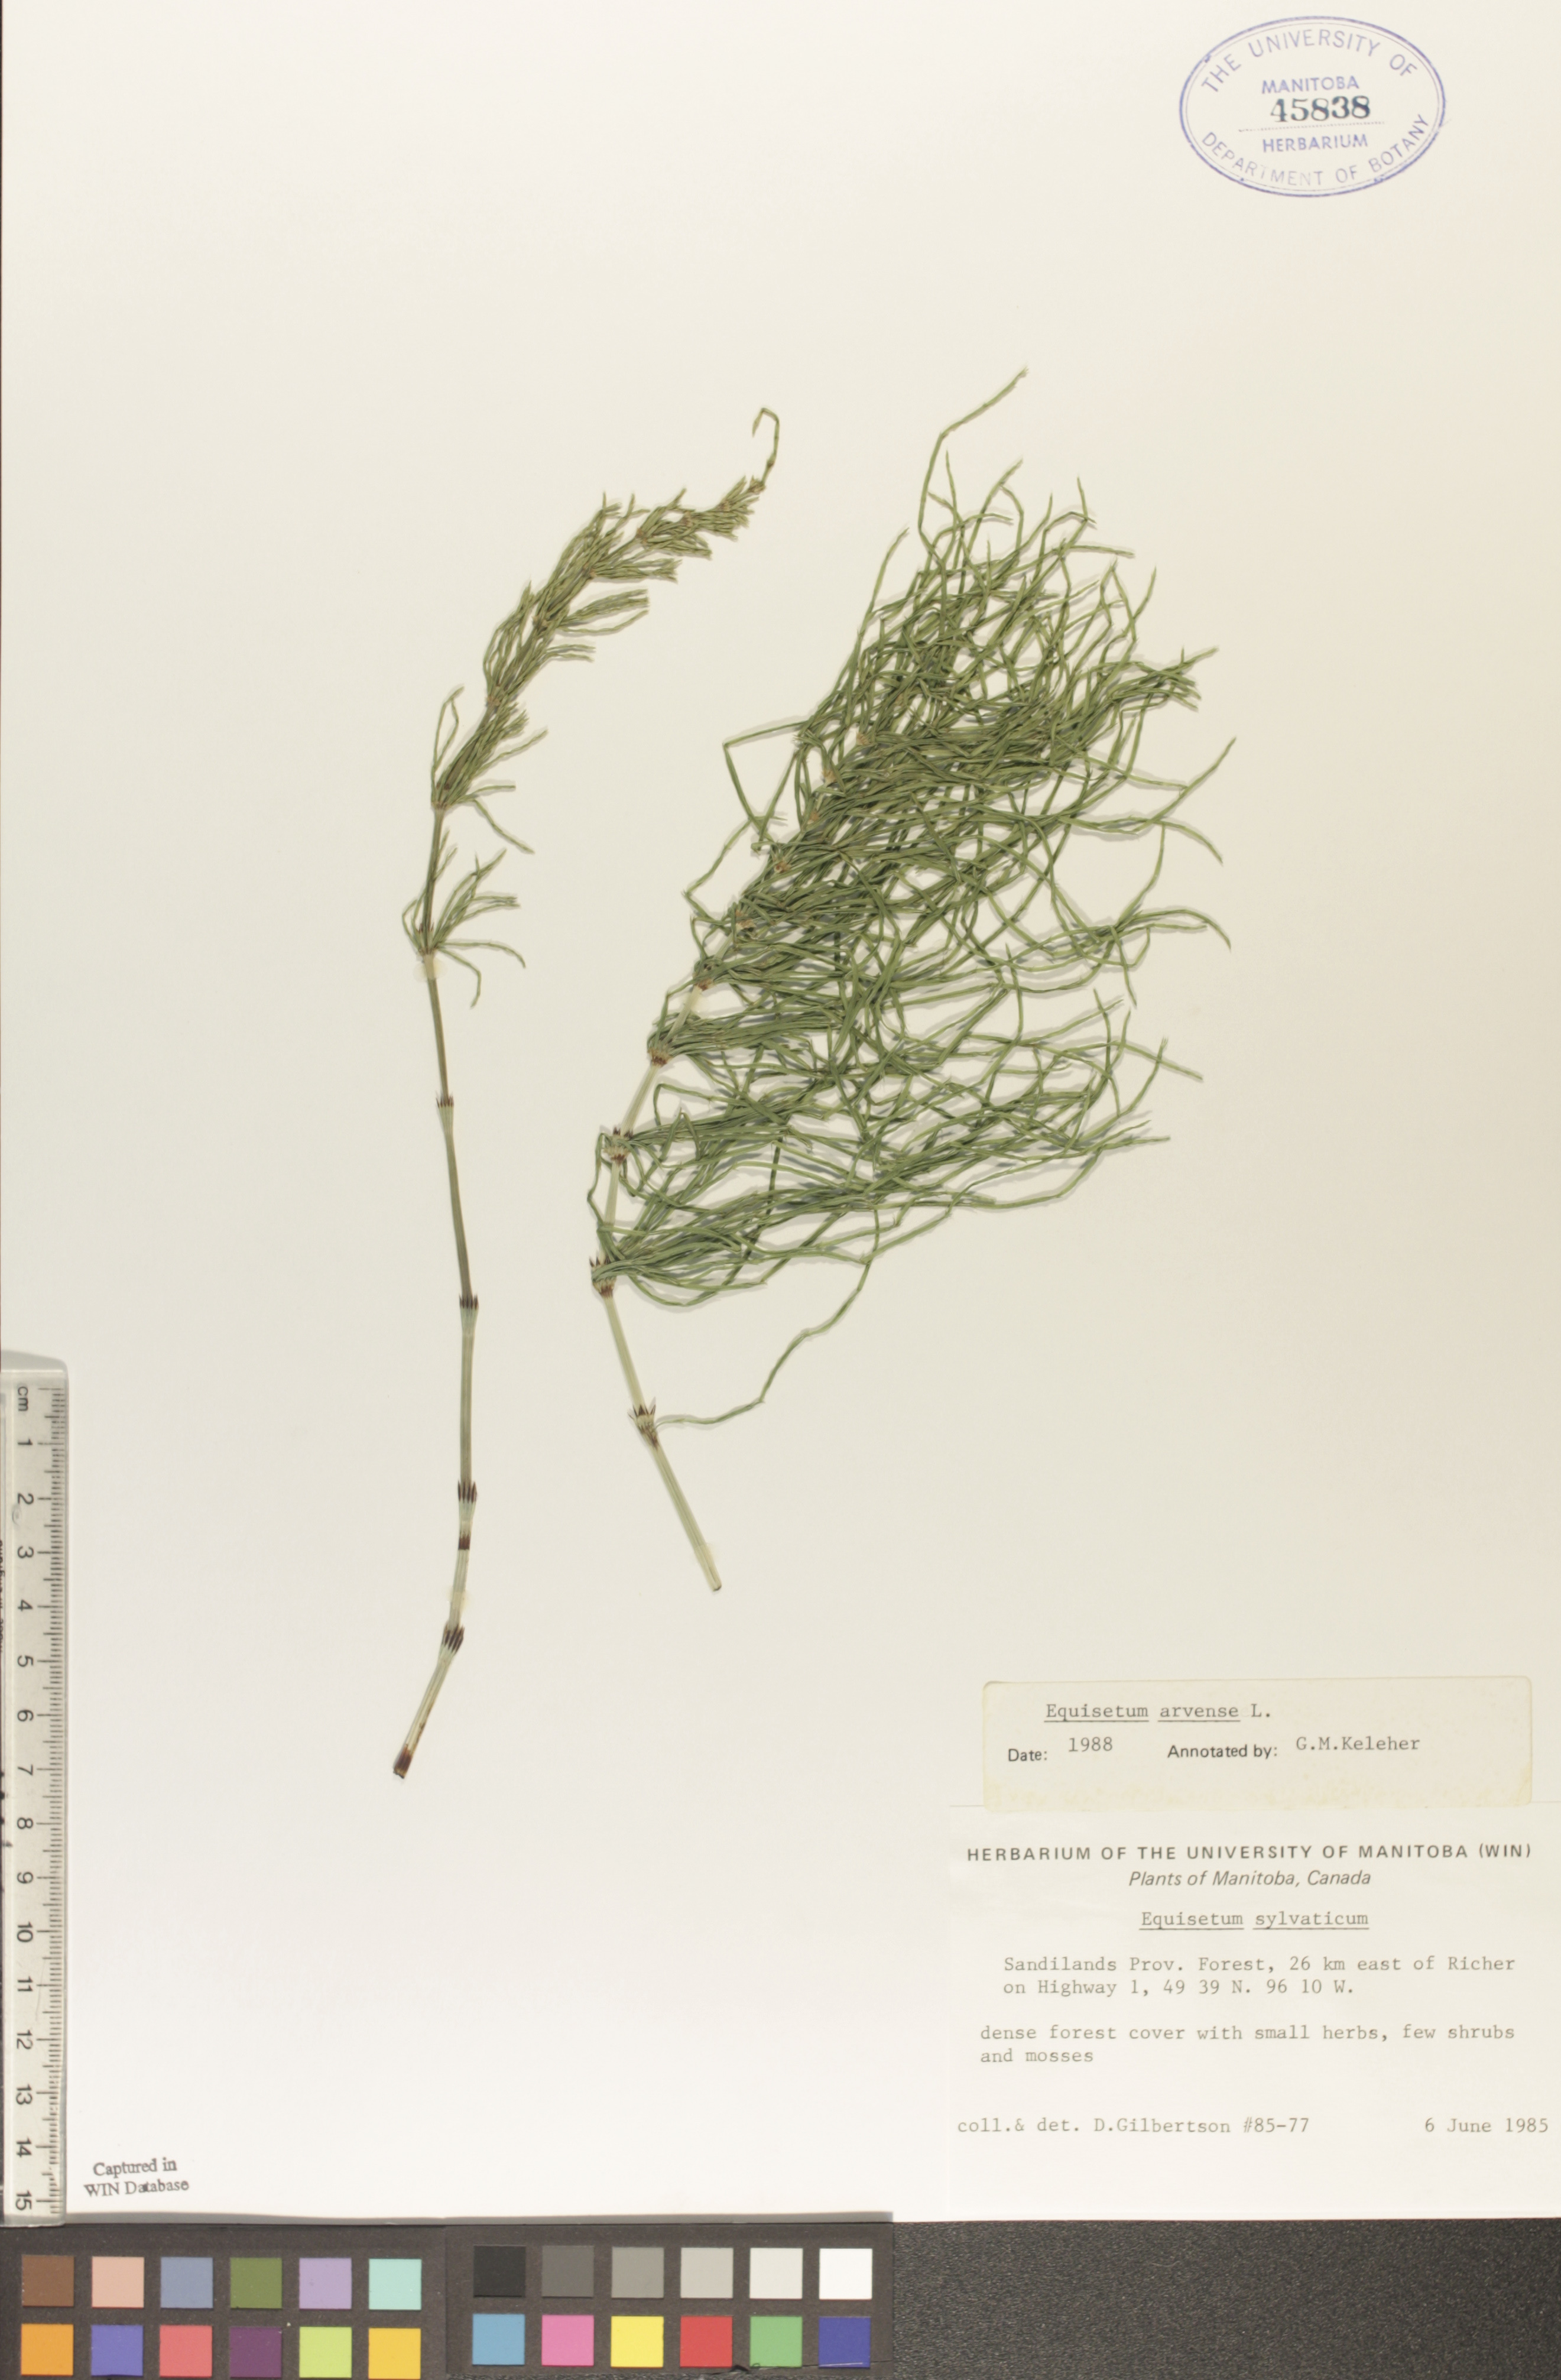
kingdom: Plantae
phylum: Tracheophyta
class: Polypodiopsida
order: Equisetales
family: Equisetaceae
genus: Equisetum
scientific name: Equisetum arvense
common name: Field horsetail
